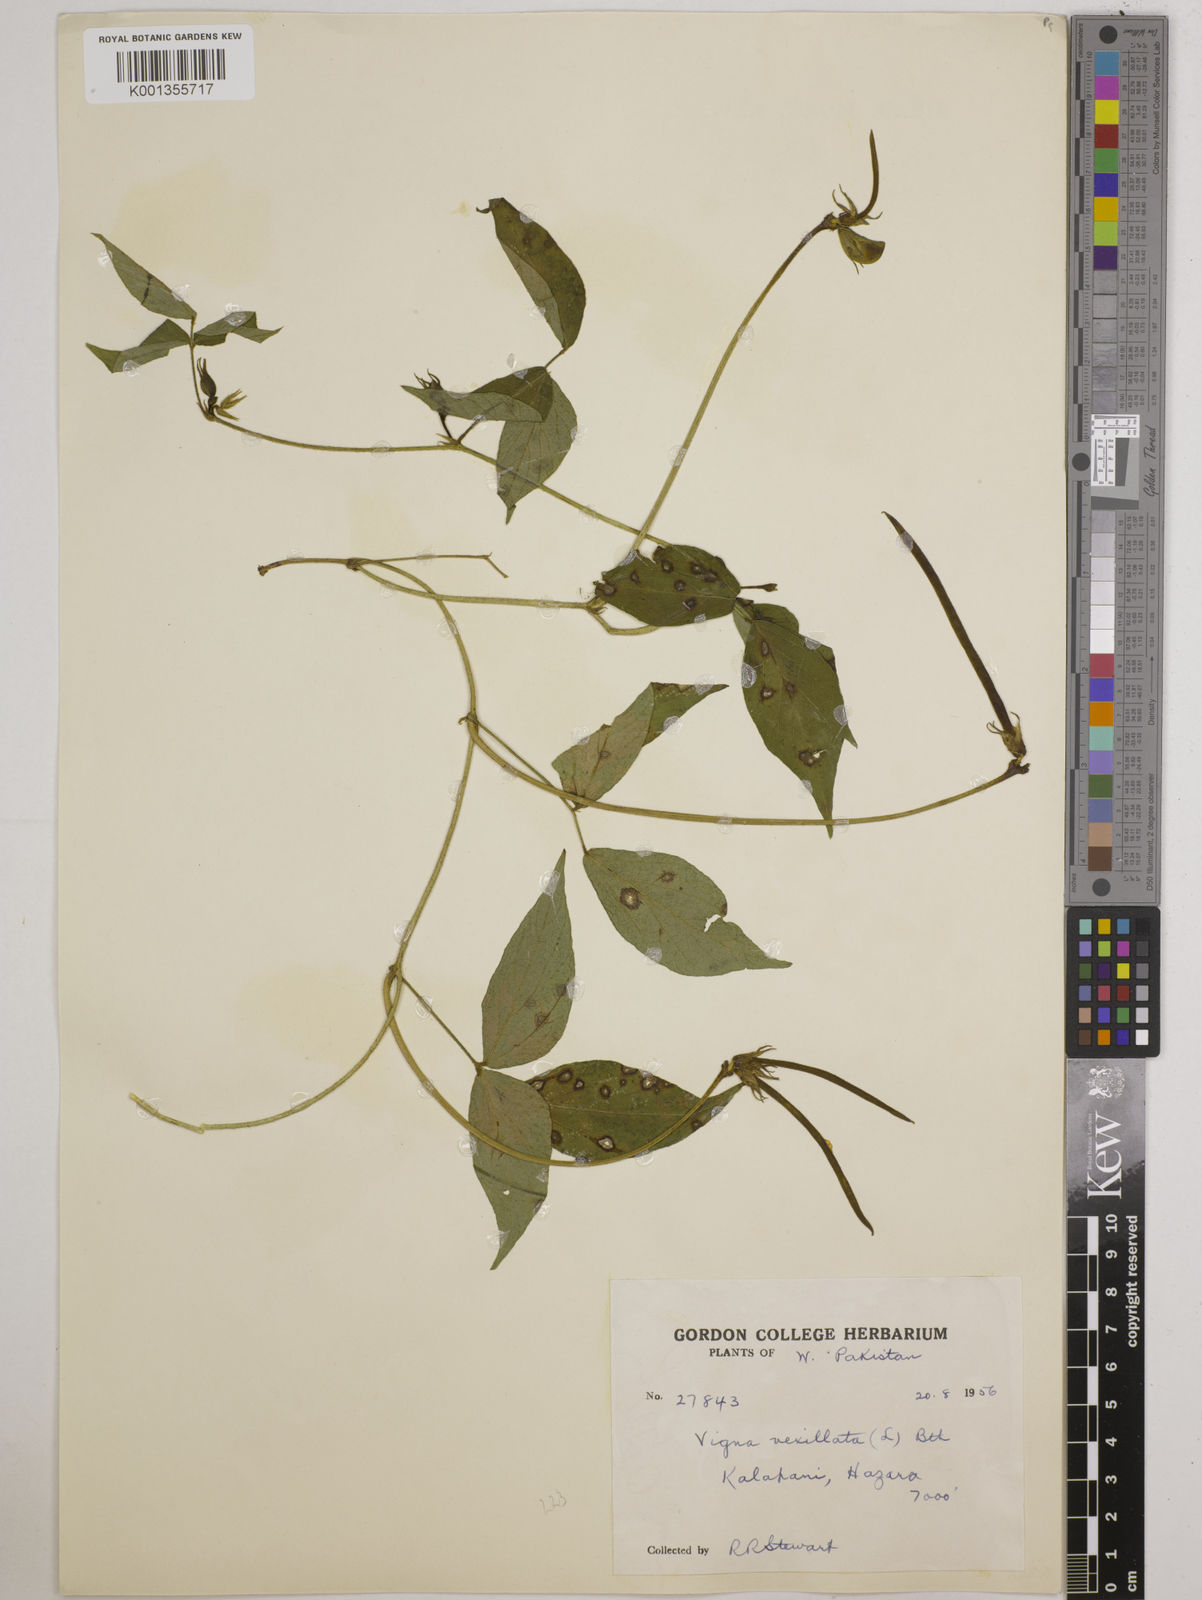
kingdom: Plantae
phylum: Tracheophyta
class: Magnoliopsida
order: Fabales
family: Fabaceae
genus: Vigna
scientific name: Vigna vexillata
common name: Zombi pea
